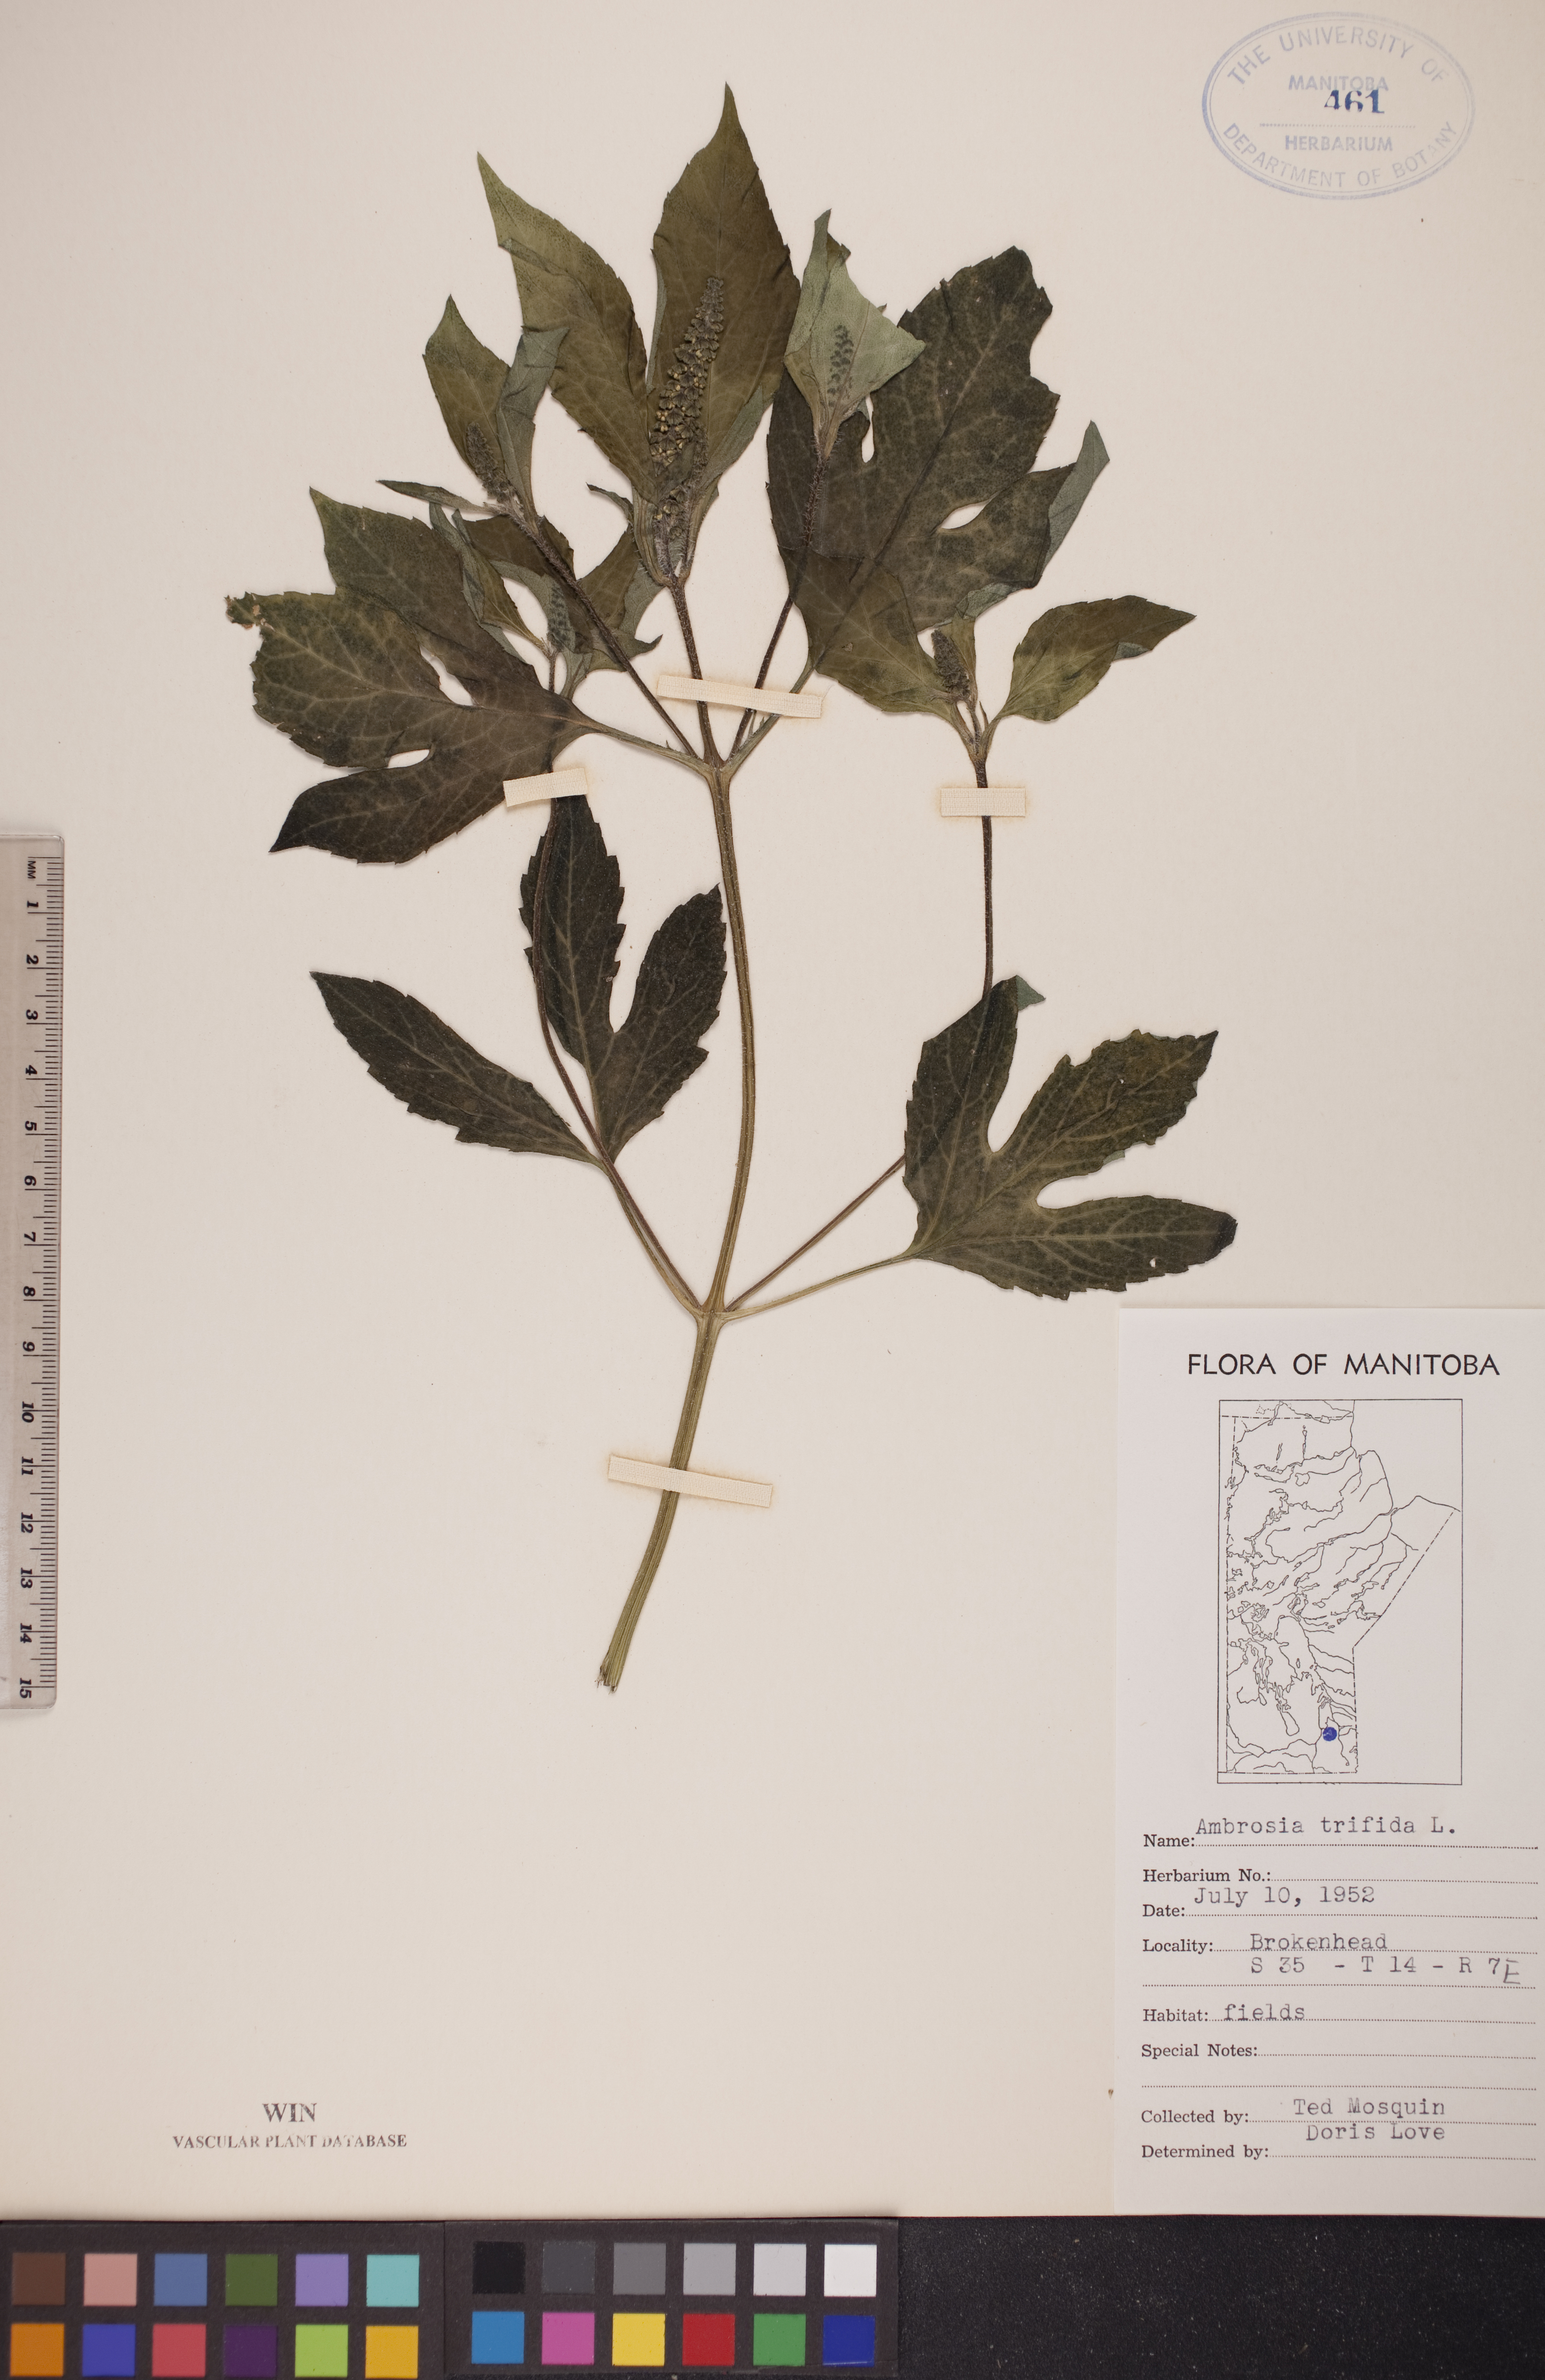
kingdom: Plantae
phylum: Tracheophyta
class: Magnoliopsida
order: Asterales
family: Asteraceae
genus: Ambrosia
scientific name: Ambrosia trifida
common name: Giant ragweed
